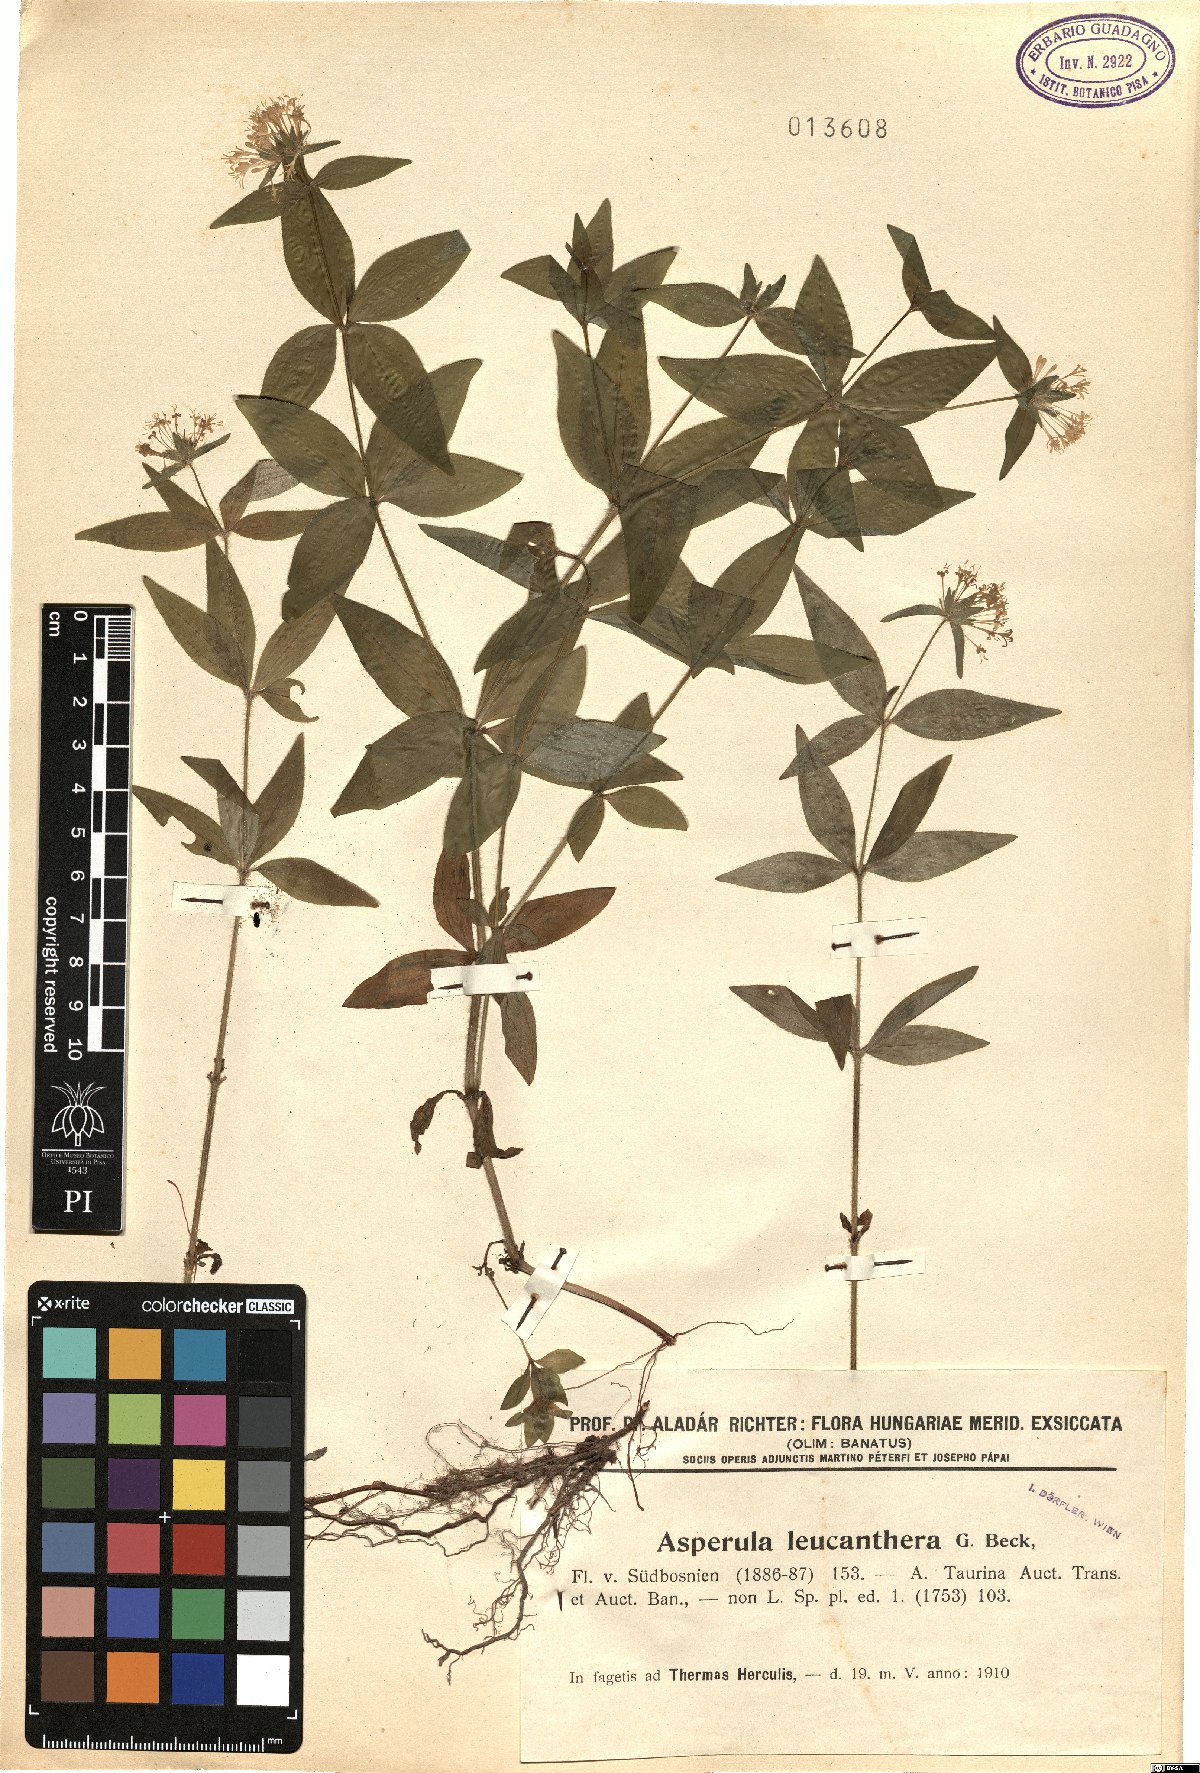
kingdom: Plantae
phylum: Tracheophyta
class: Magnoliopsida
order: Gentianales
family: Rubiaceae
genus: Asperula
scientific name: Asperula
